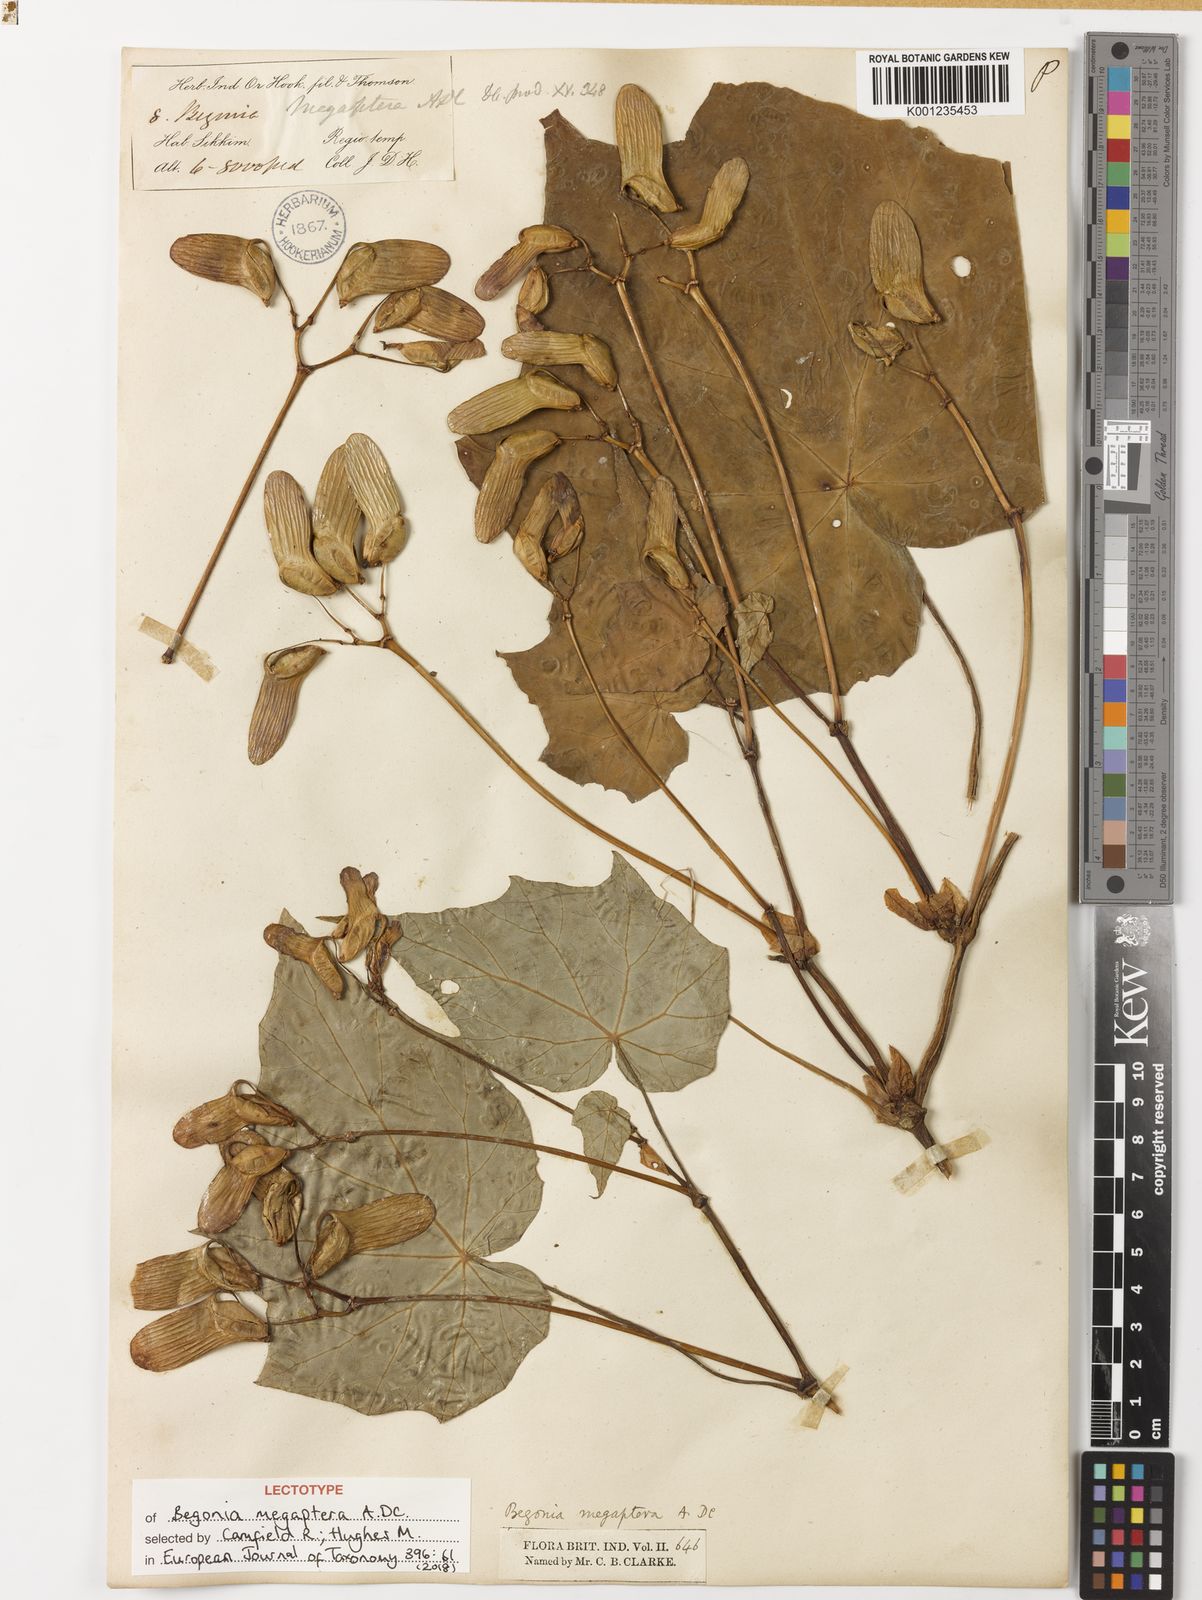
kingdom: Plantae
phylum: Tracheophyta
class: Magnoliopsida
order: Cucurbitales
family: Begoniaceae
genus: Begonia
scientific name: Begonia megaptera
